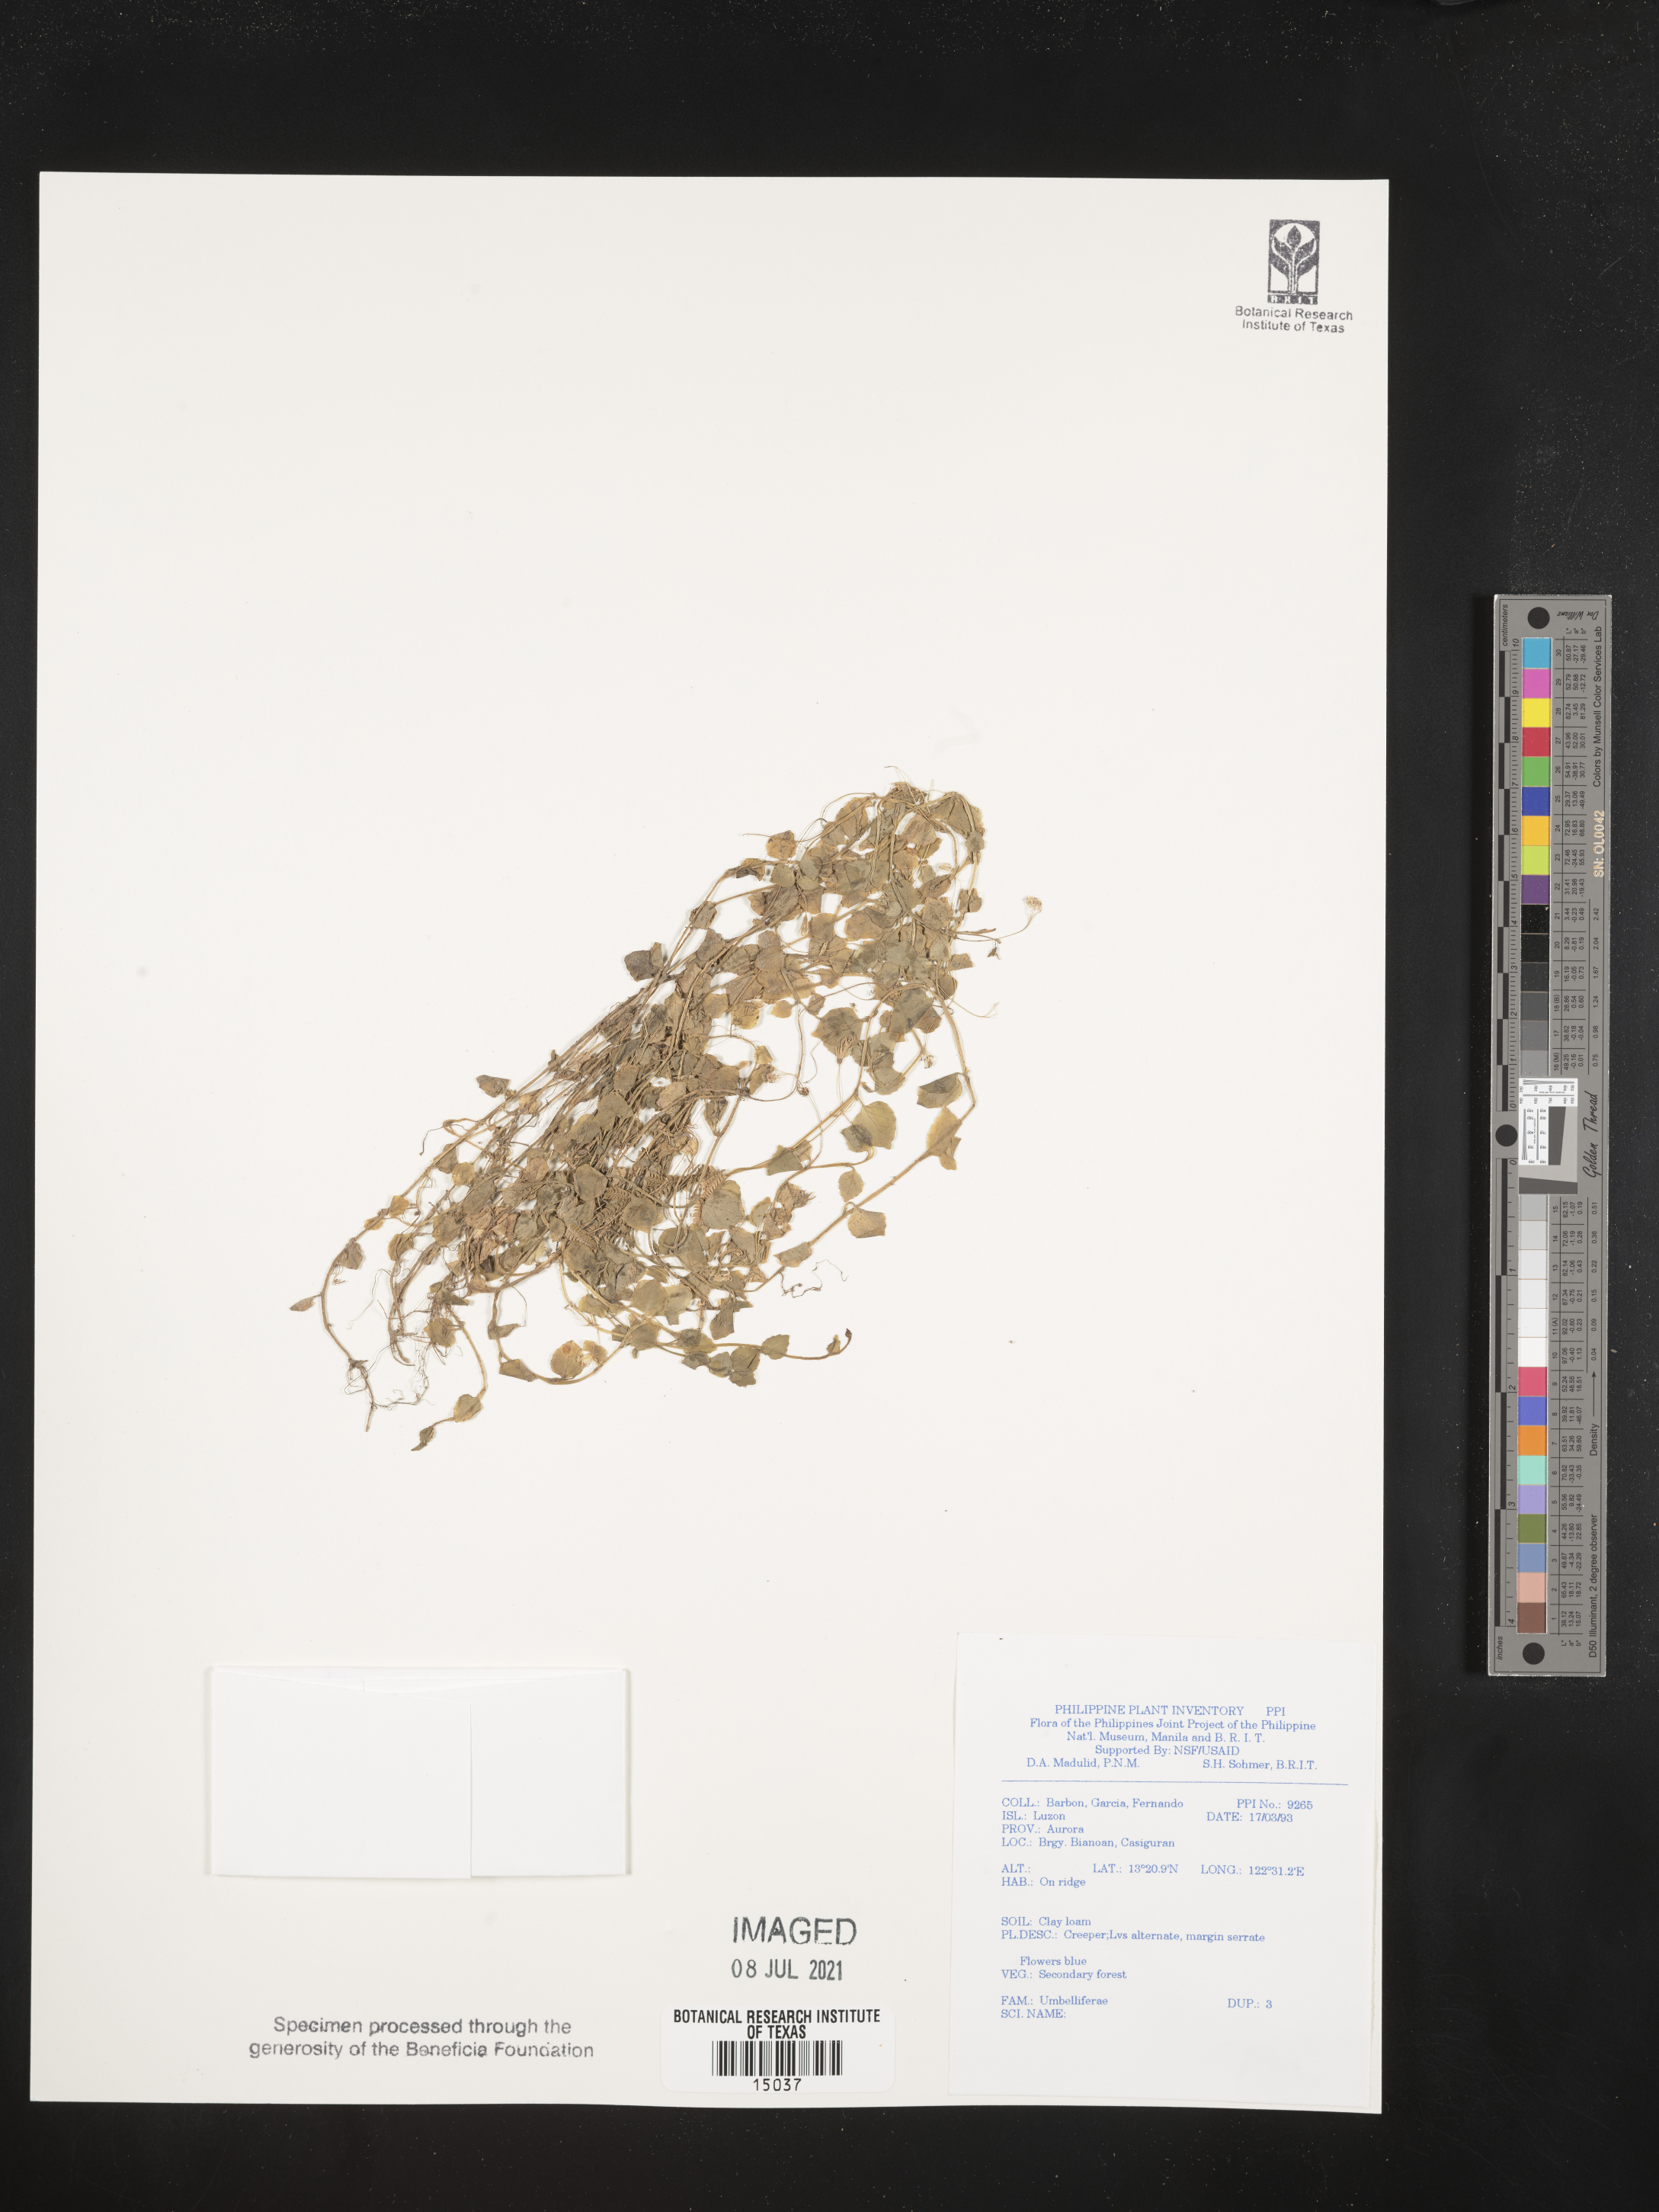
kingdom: Plantae
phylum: Tracheophyta
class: Magnoliopsida
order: Apiales
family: Apiaceae
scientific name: Apiaceae
